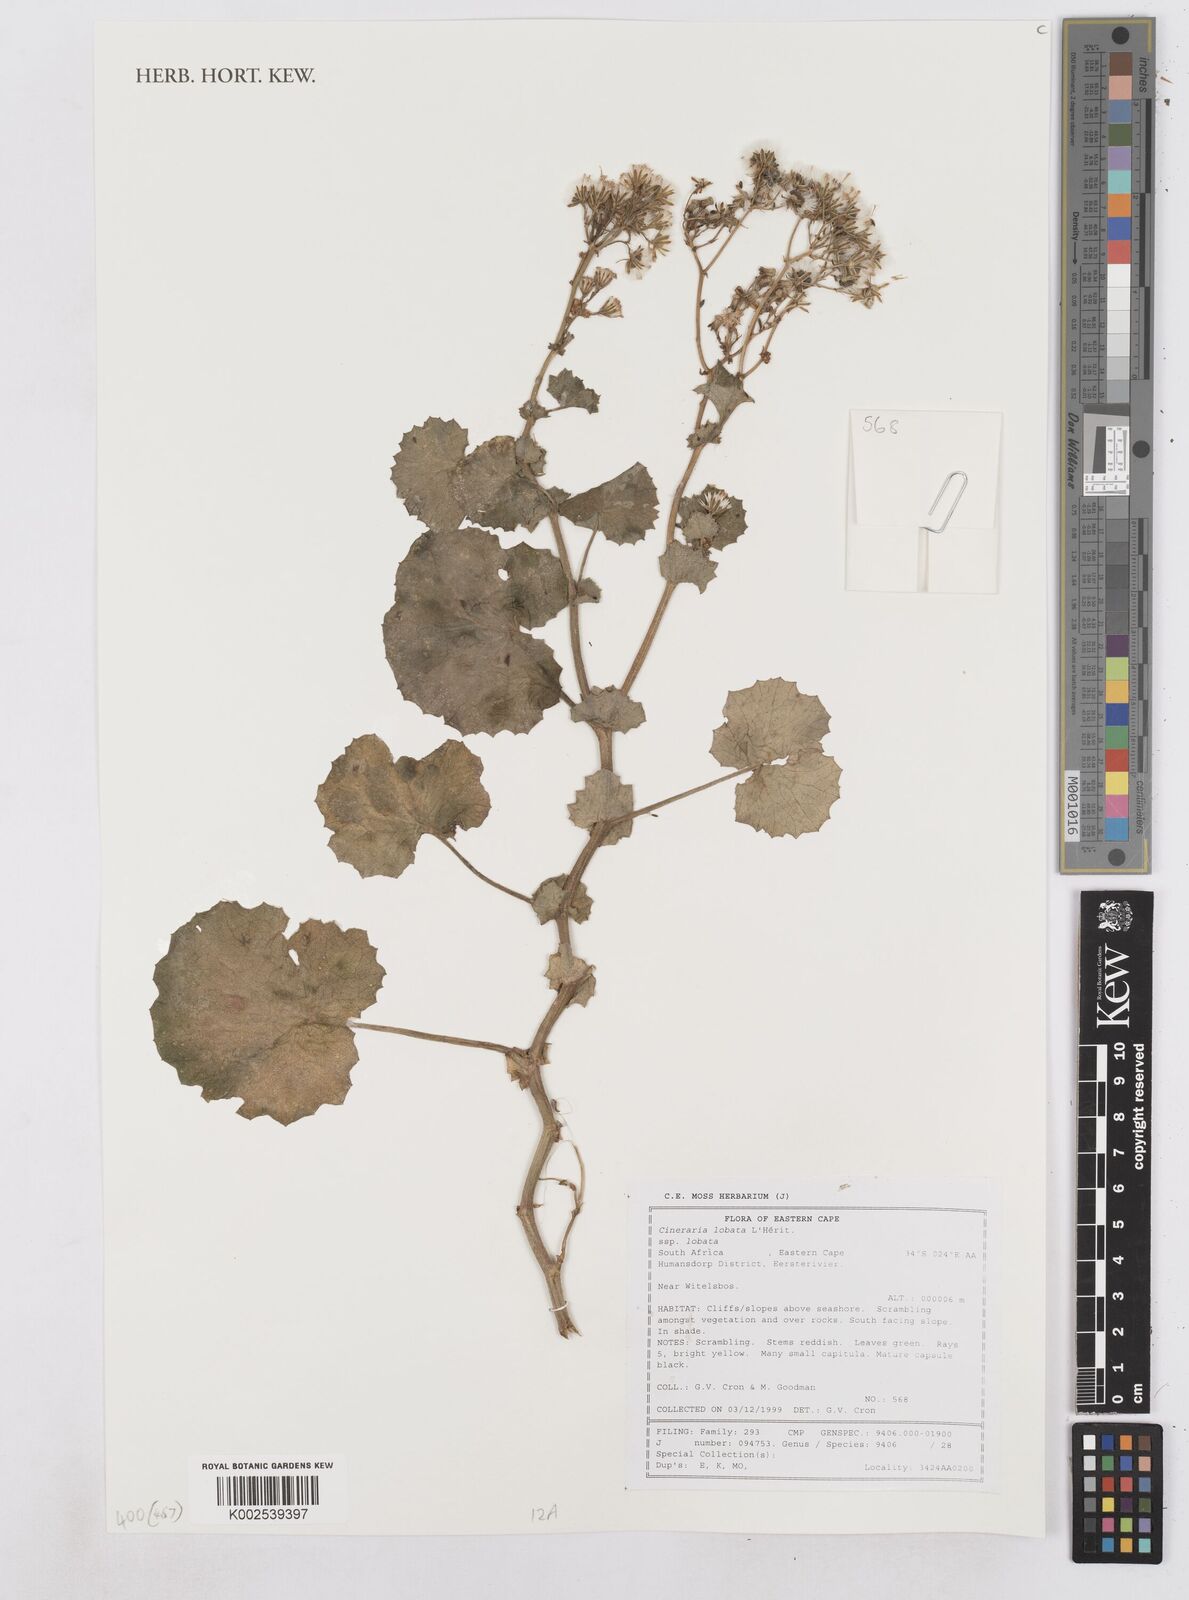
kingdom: Plantae
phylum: Tracheophyta
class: Magnoliopsida
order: Asterales
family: Asteraceae
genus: Cineraria
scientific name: Cineraria
